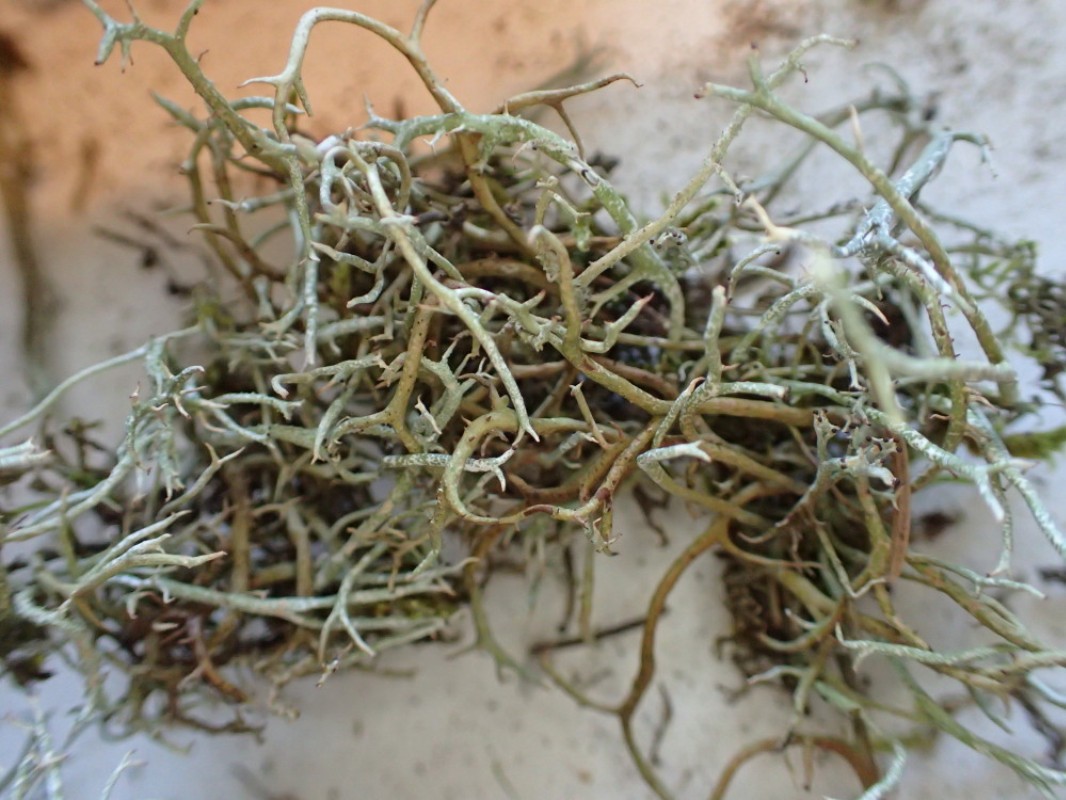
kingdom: Fungi
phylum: Ascomycota
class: Lecanoromycetes
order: Lecanorales
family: Cladoniaceae
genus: Cladonia
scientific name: Cladonia furcata
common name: kløftet bægerlav
